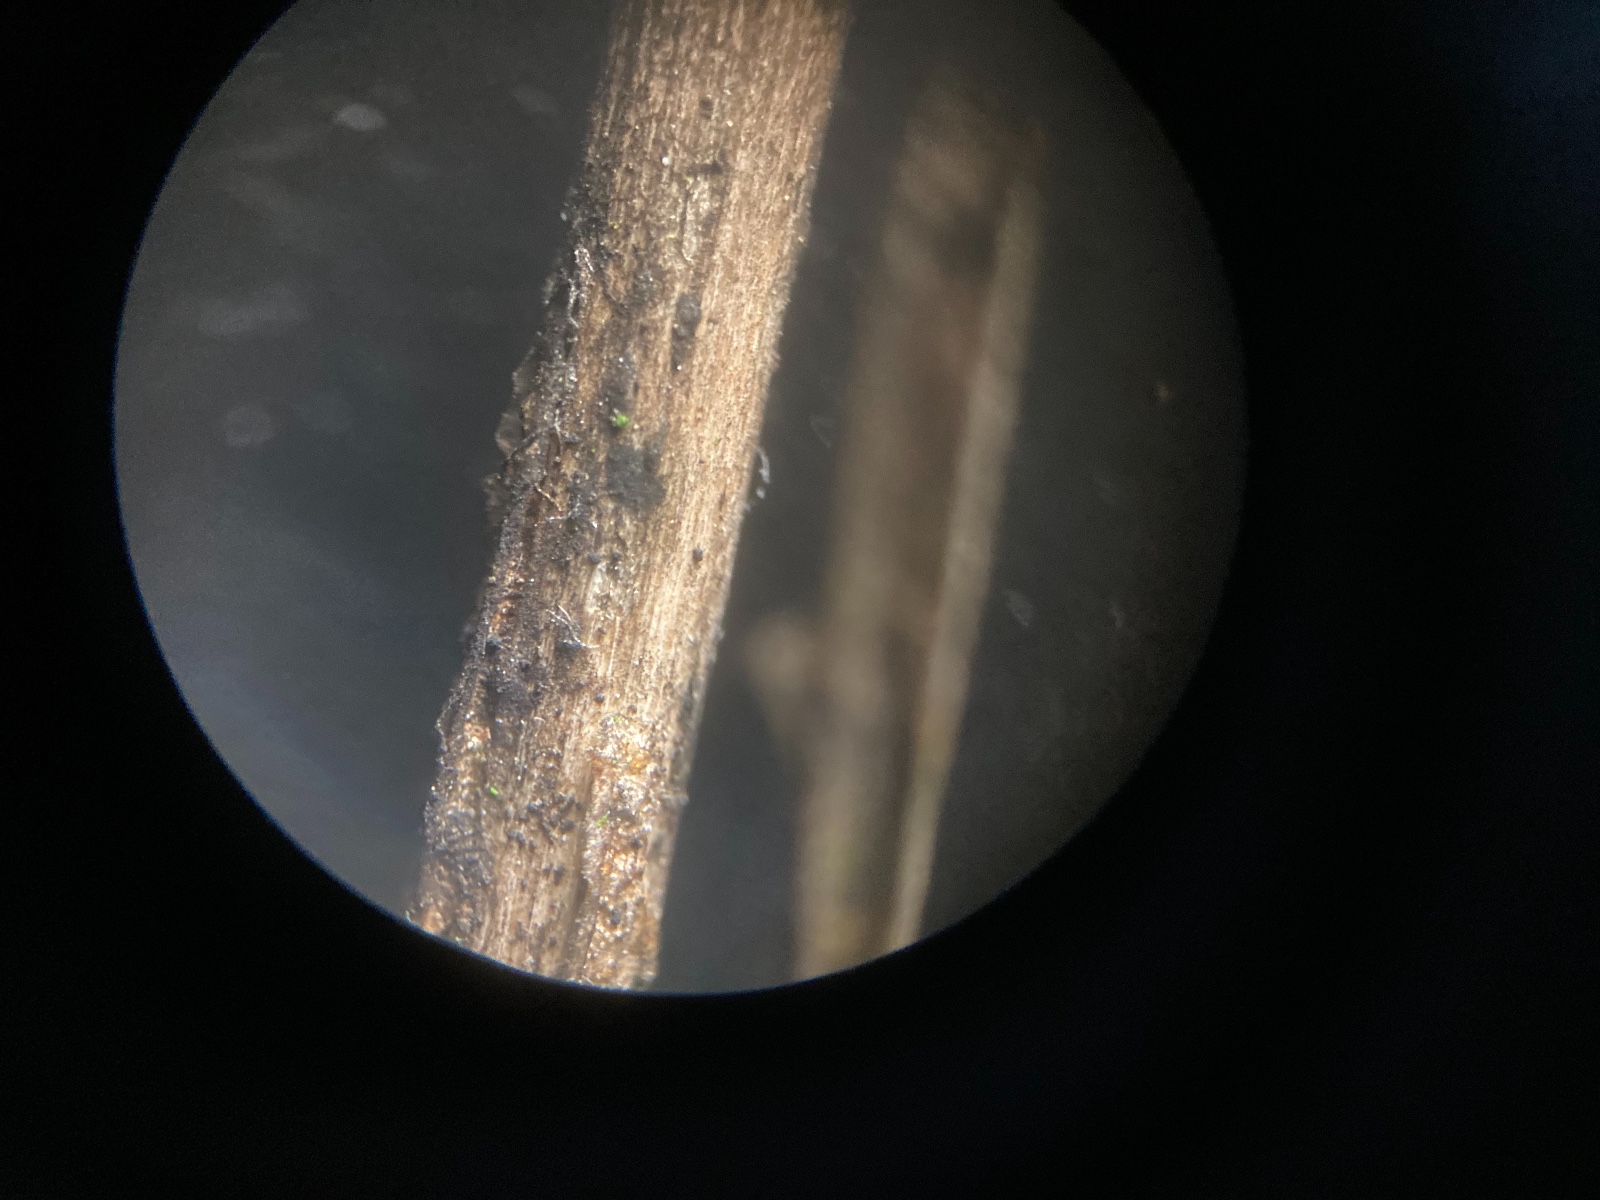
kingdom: Fungi
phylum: Ascomycota
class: Dothideomycetes
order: Botryosphaeriales
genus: Camarosporium
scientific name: Camarosporium
